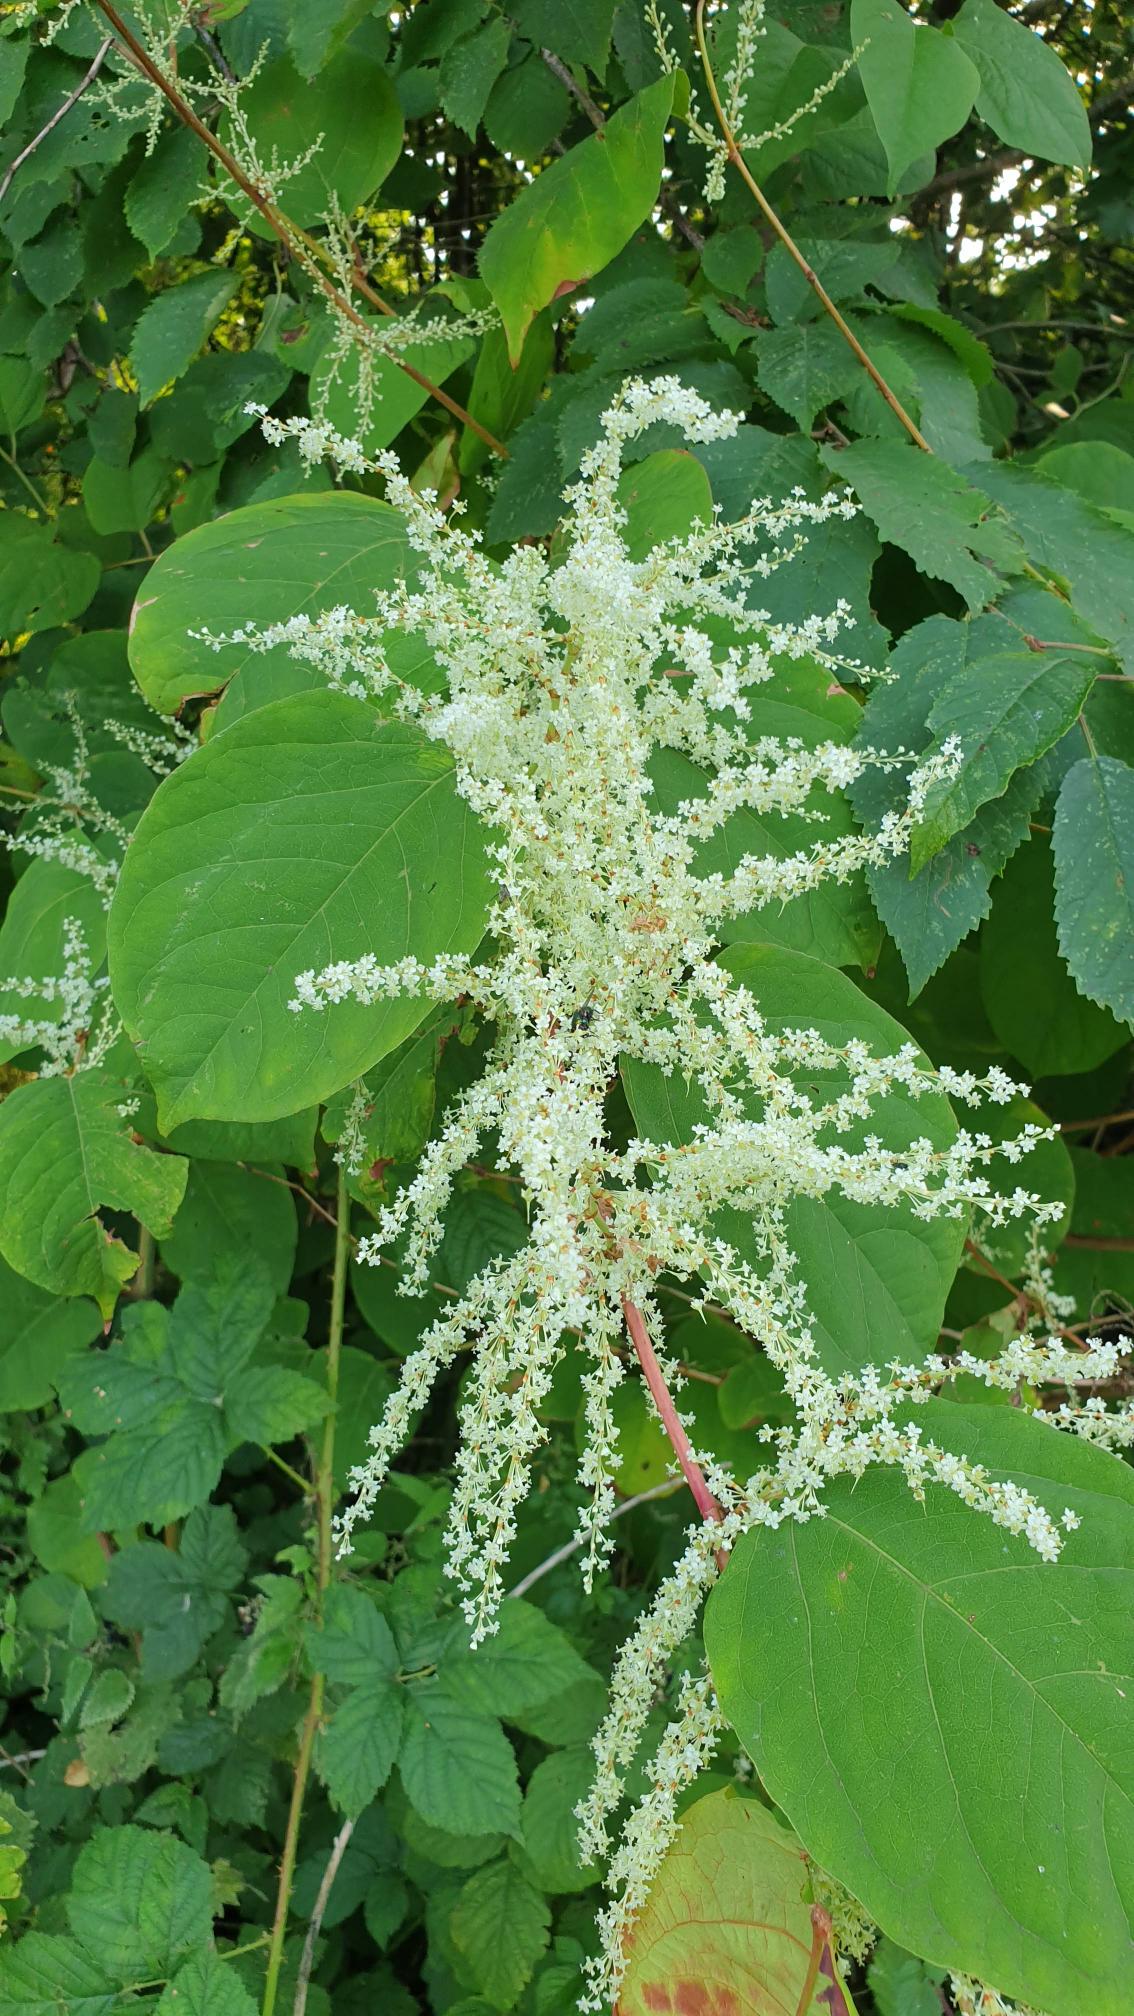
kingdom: Plantae
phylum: Tracheophyta
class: Magnoliopsida
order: Caryophyllales
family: Polygonaceae
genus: Reynoutria
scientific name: Reynoutria japonica
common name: Japan-pileurt
